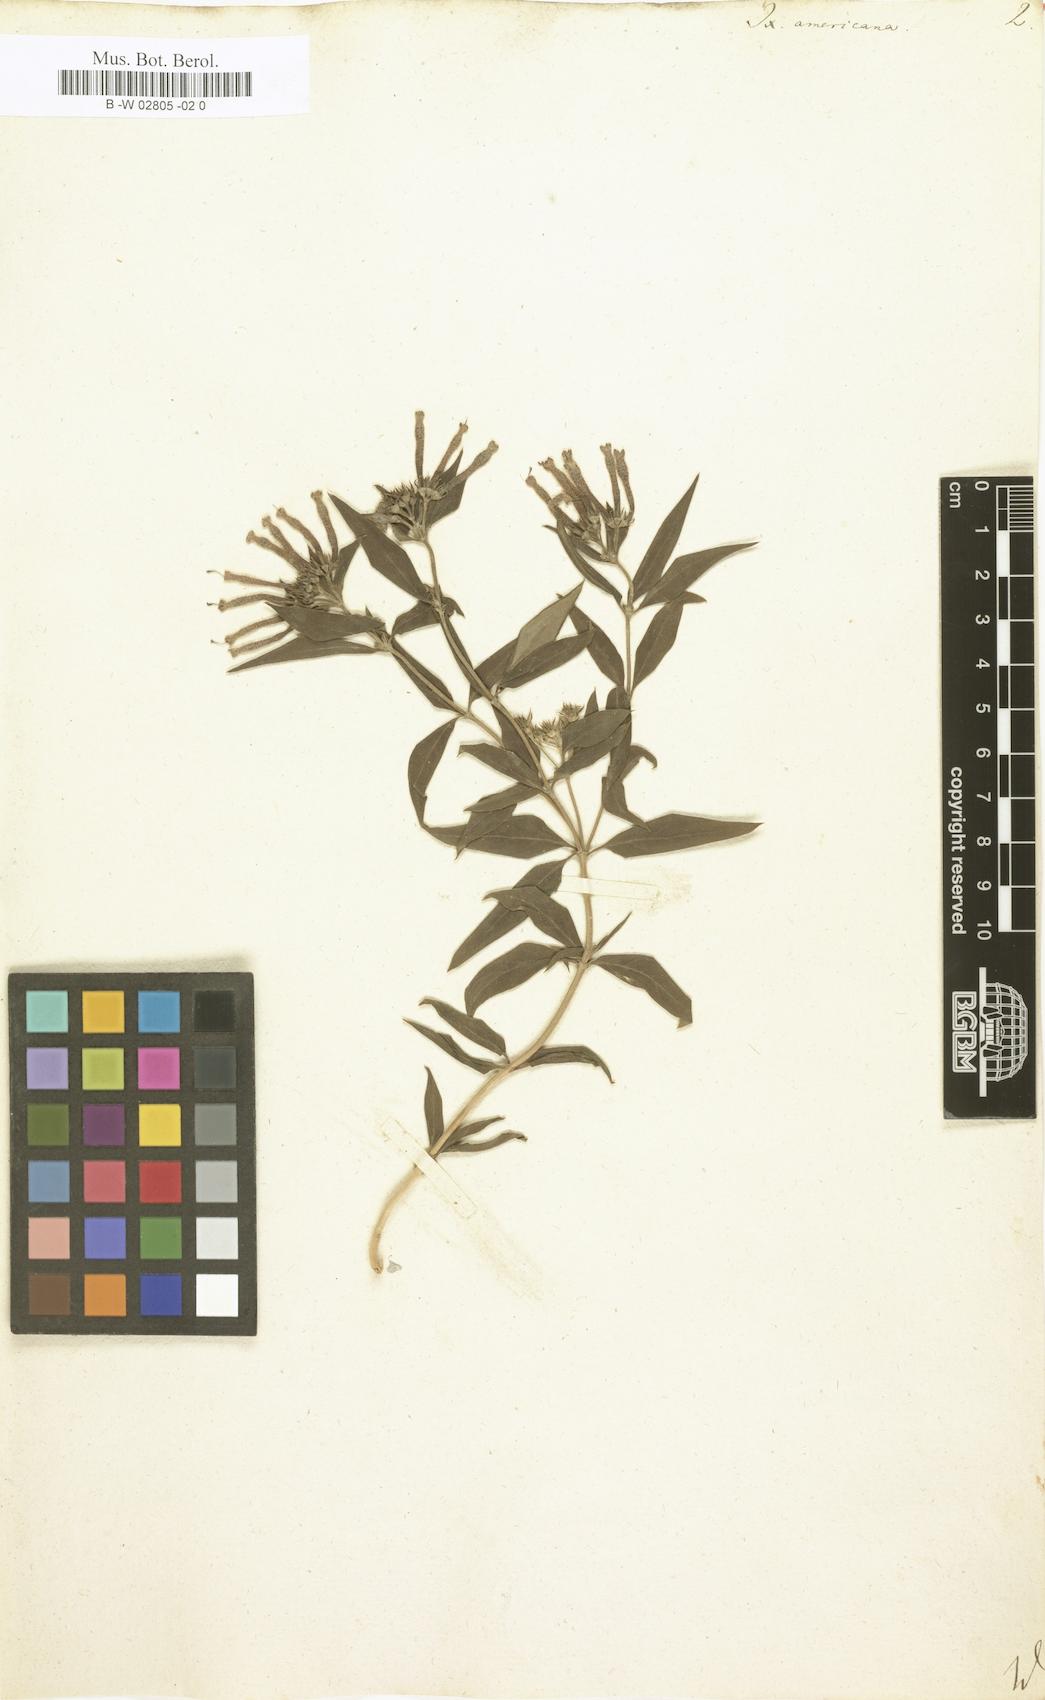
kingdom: Plantae
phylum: Tracheophyta
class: Magnoliopsida
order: Gentianales
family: Rubiaceae
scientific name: Rubiaceae
